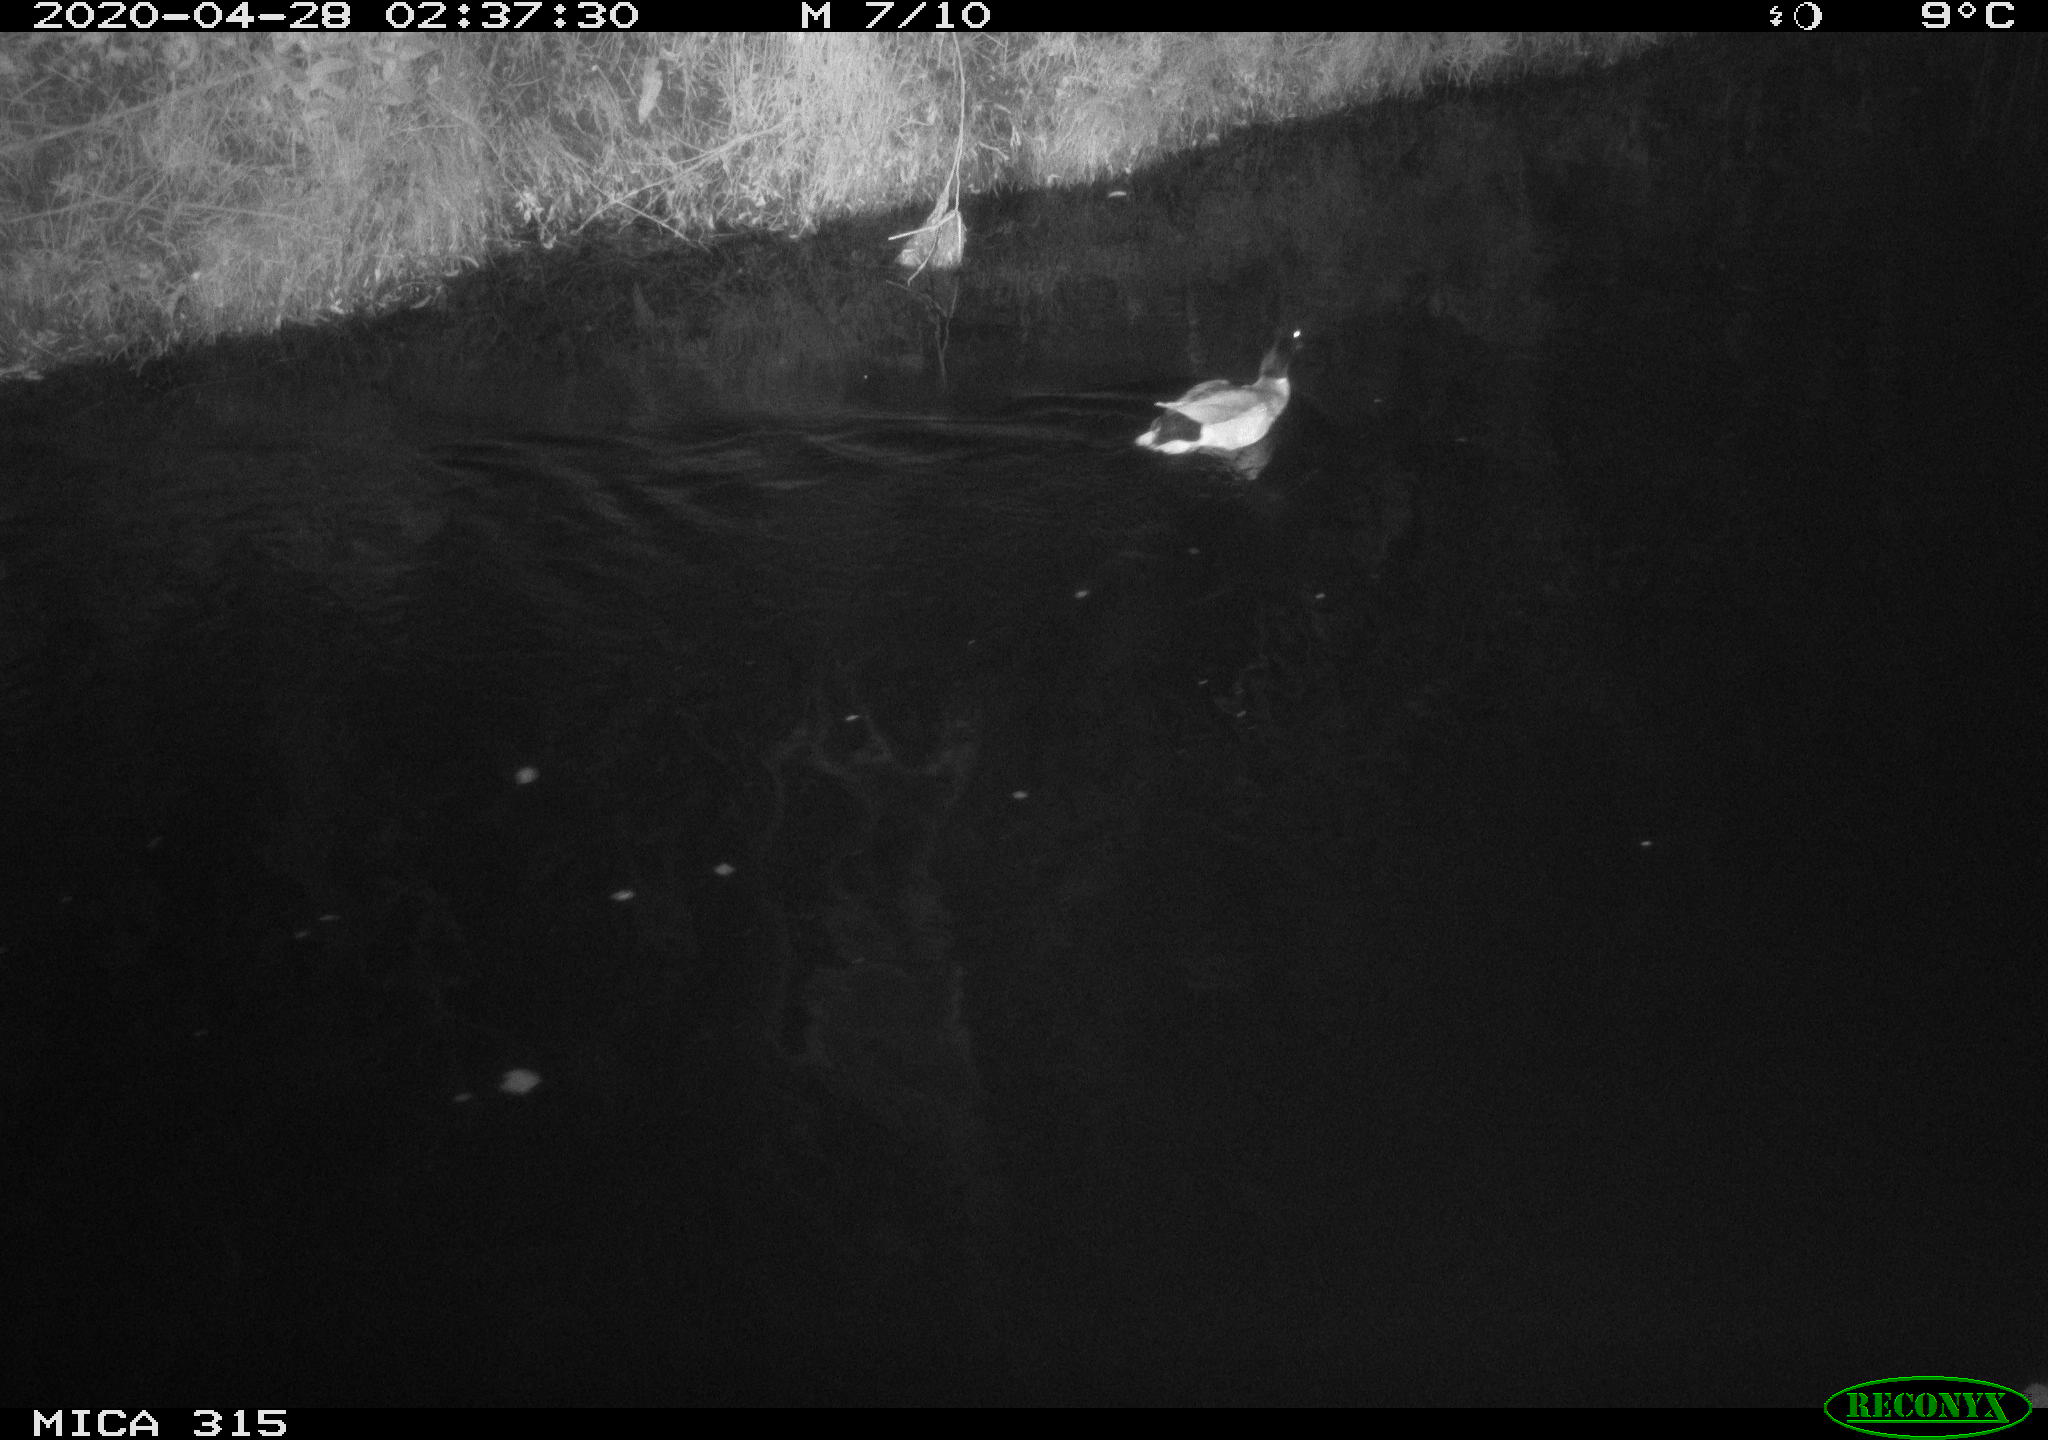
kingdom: Animalia
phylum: Chordata
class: Aves
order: Anseriformes
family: Anatidae
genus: Anas
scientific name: Anas platyrhynchos
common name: Mallard
